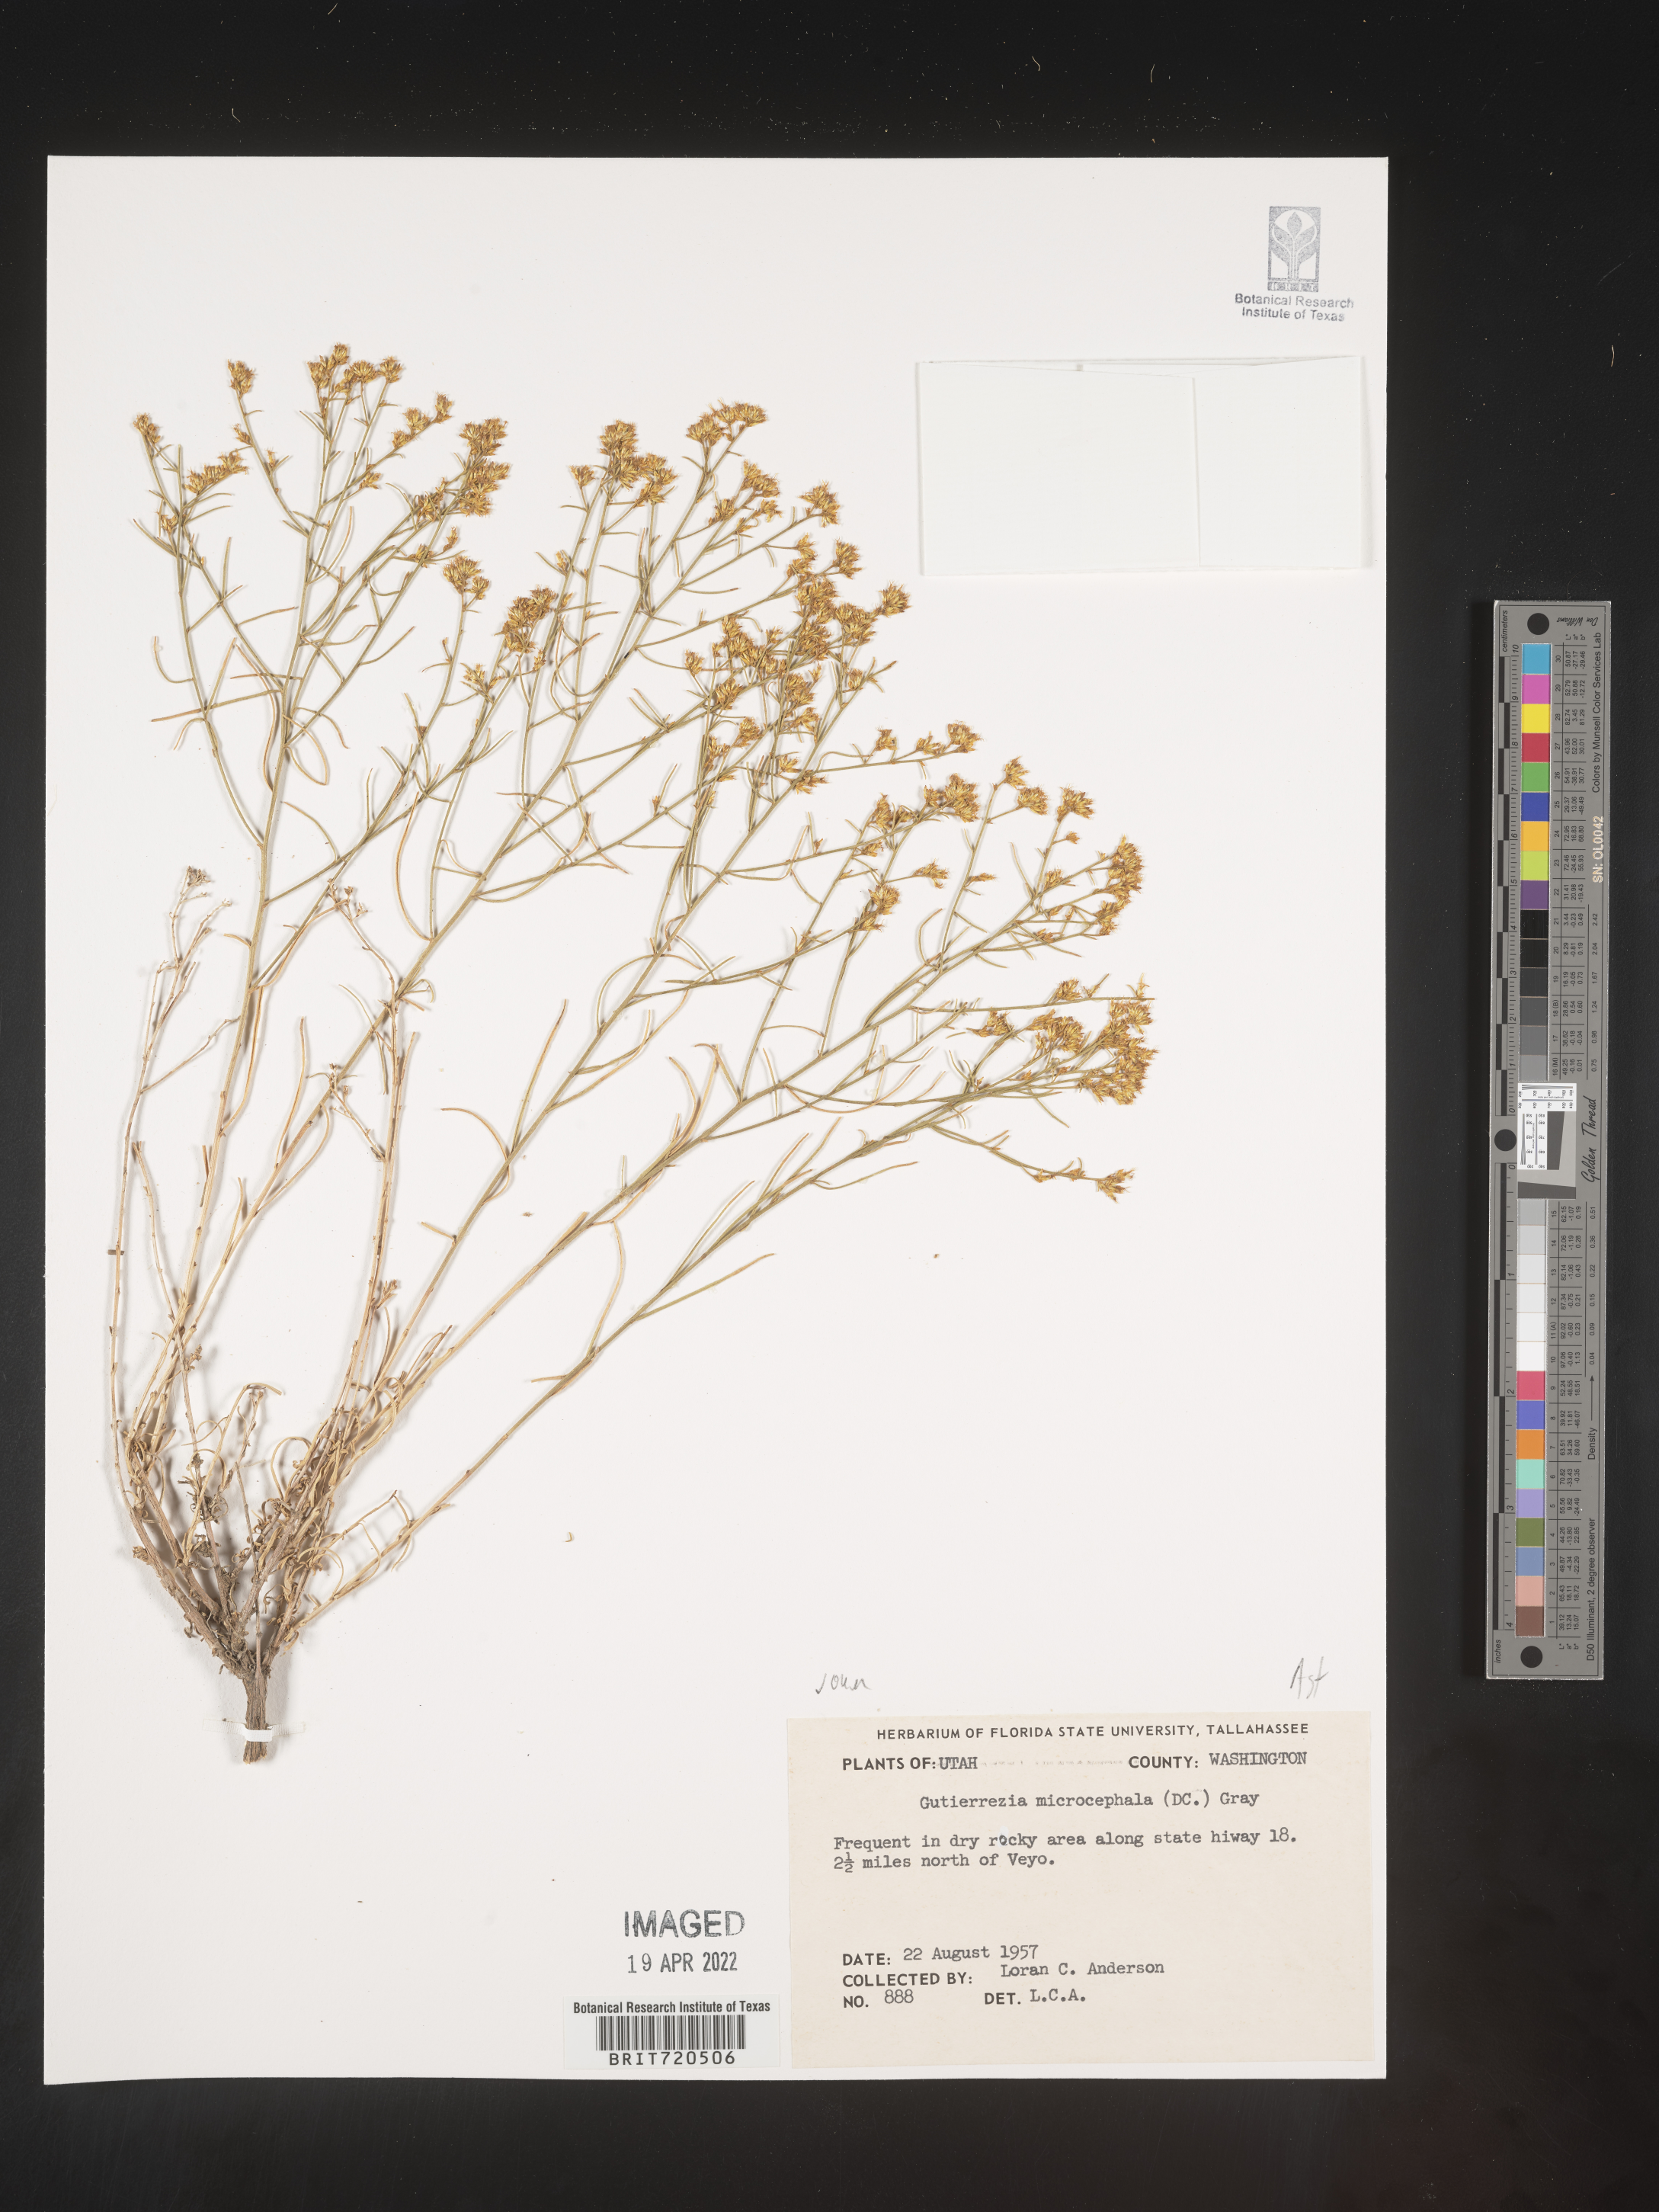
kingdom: Plantae
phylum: Tracheophyta
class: Magnoliopsida
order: Asterales
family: Asteraceae
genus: Gutierrezia
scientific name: Gutierrezia microcephala
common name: Thread snakeweed
